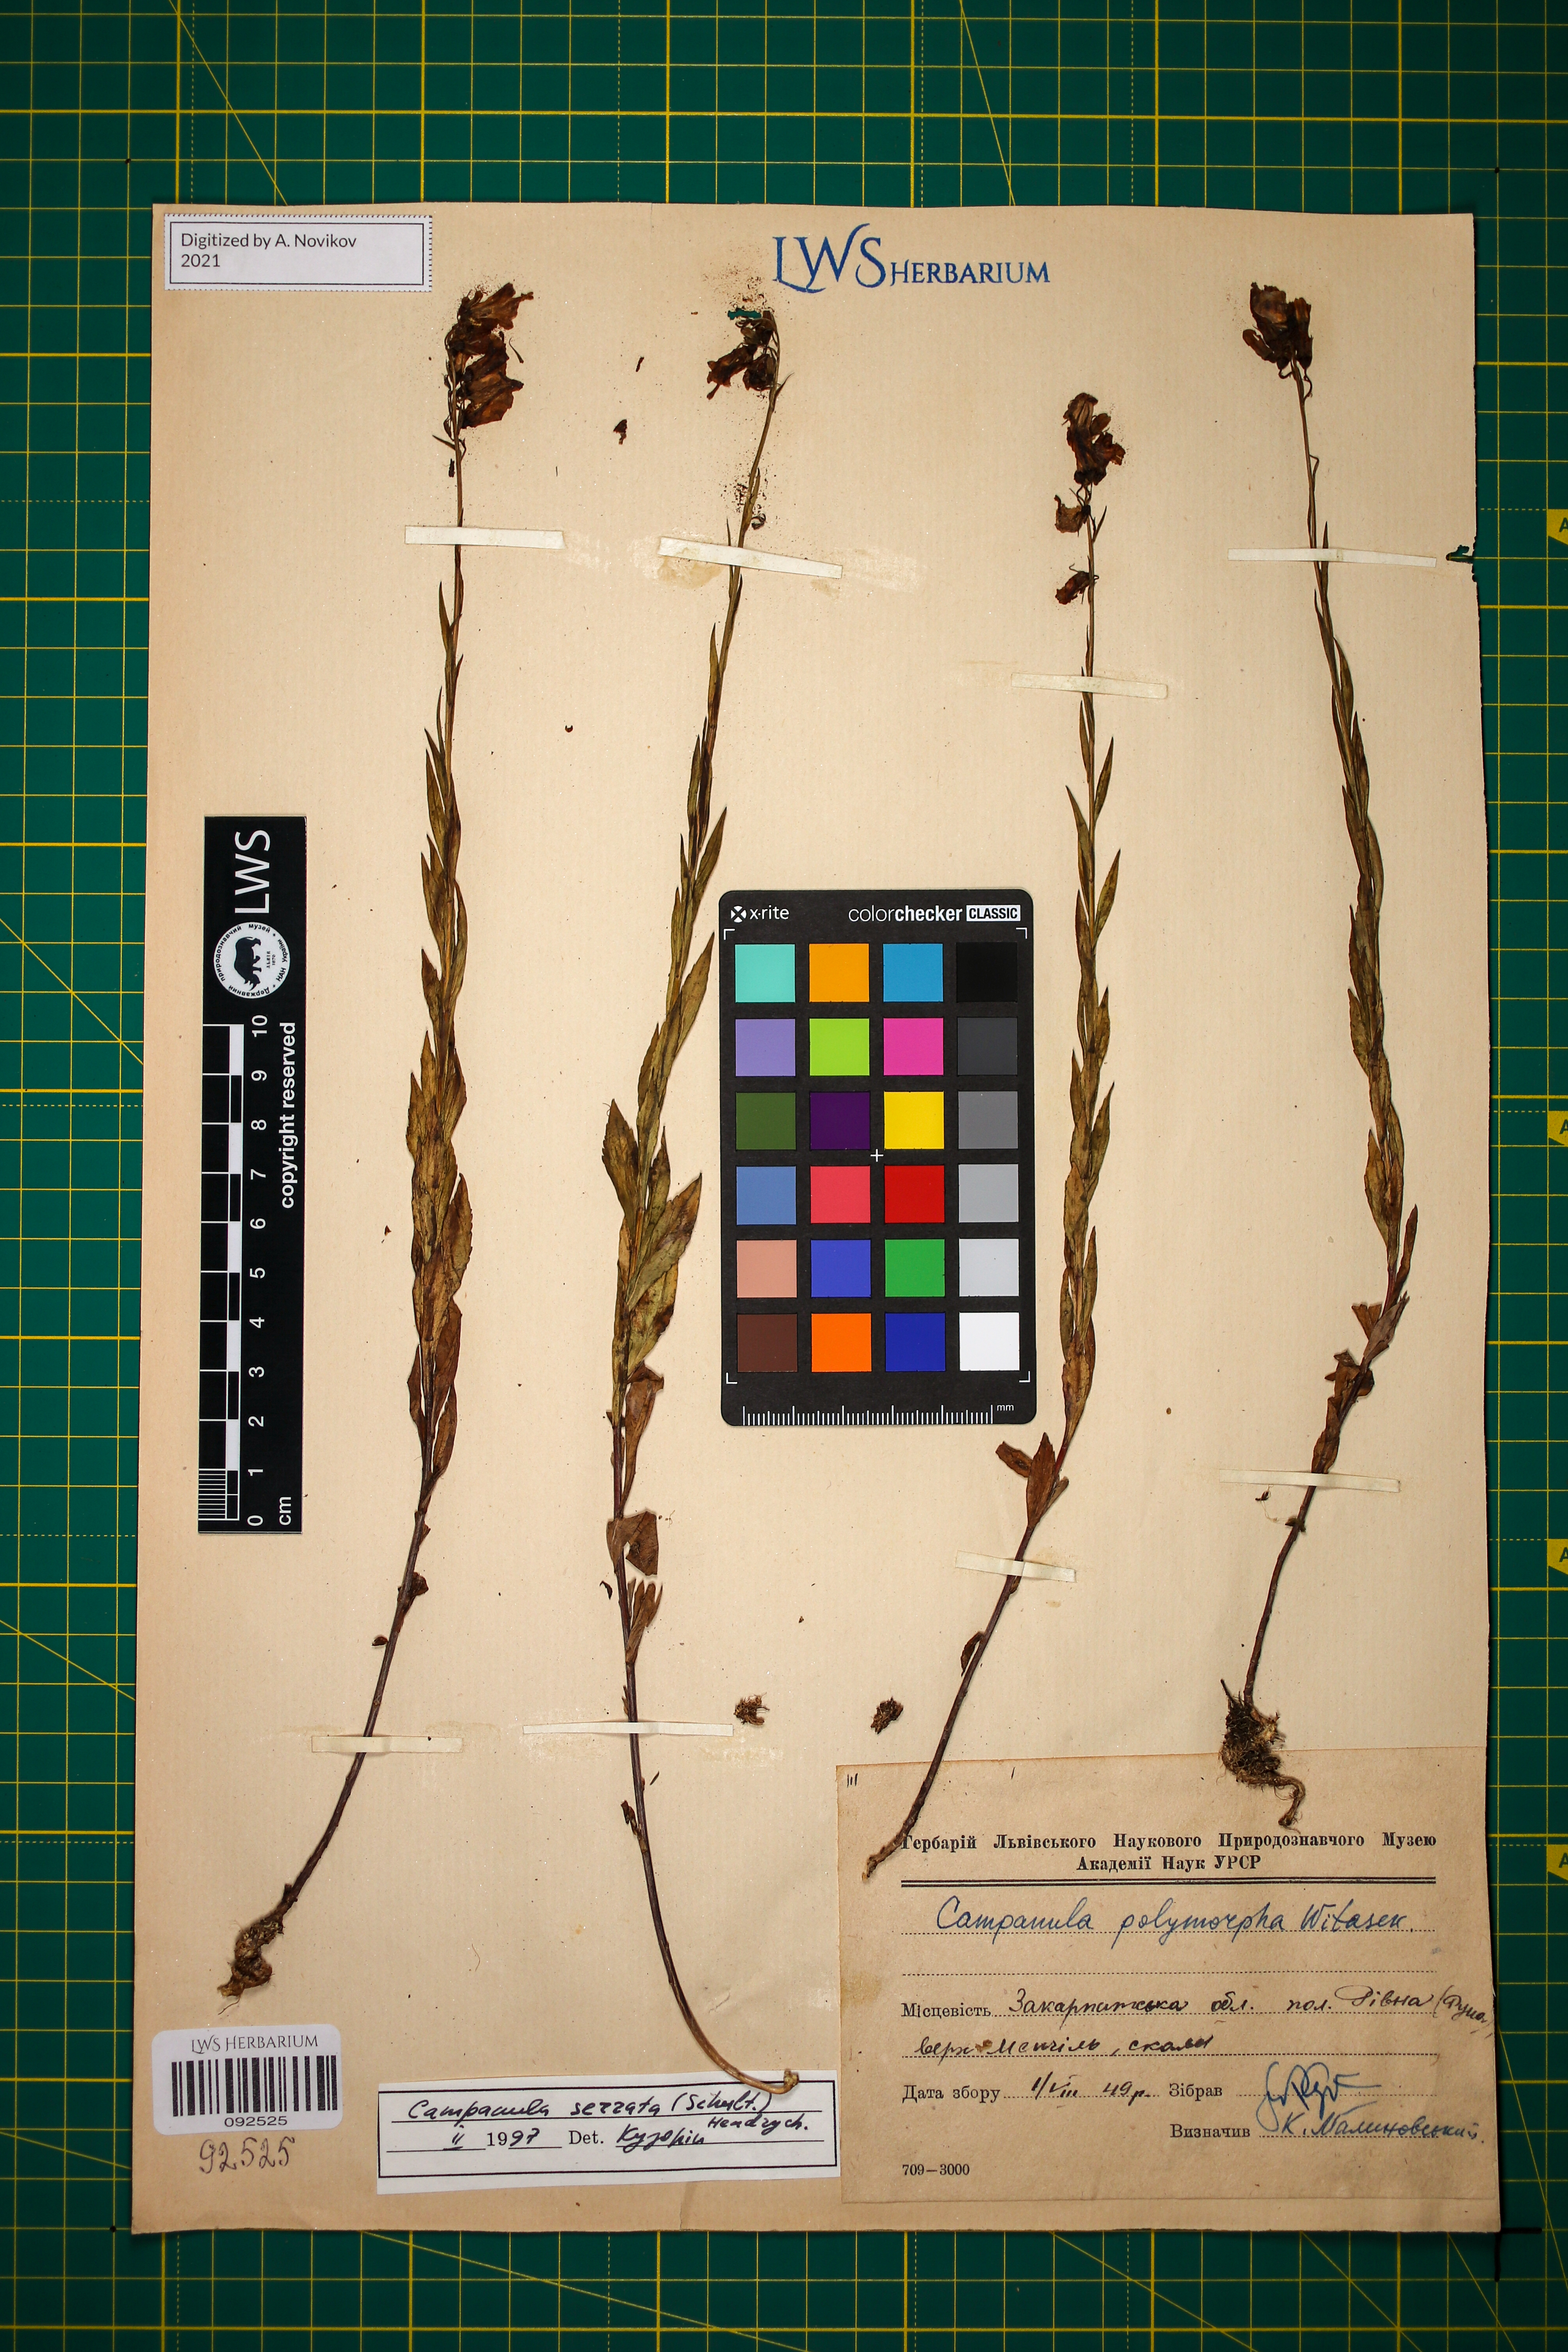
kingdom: Plantae
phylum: Tracheophyta
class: Magnoliopsida
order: Asterales
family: Campanulaceae
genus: Campanula
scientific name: Campanula serrata
